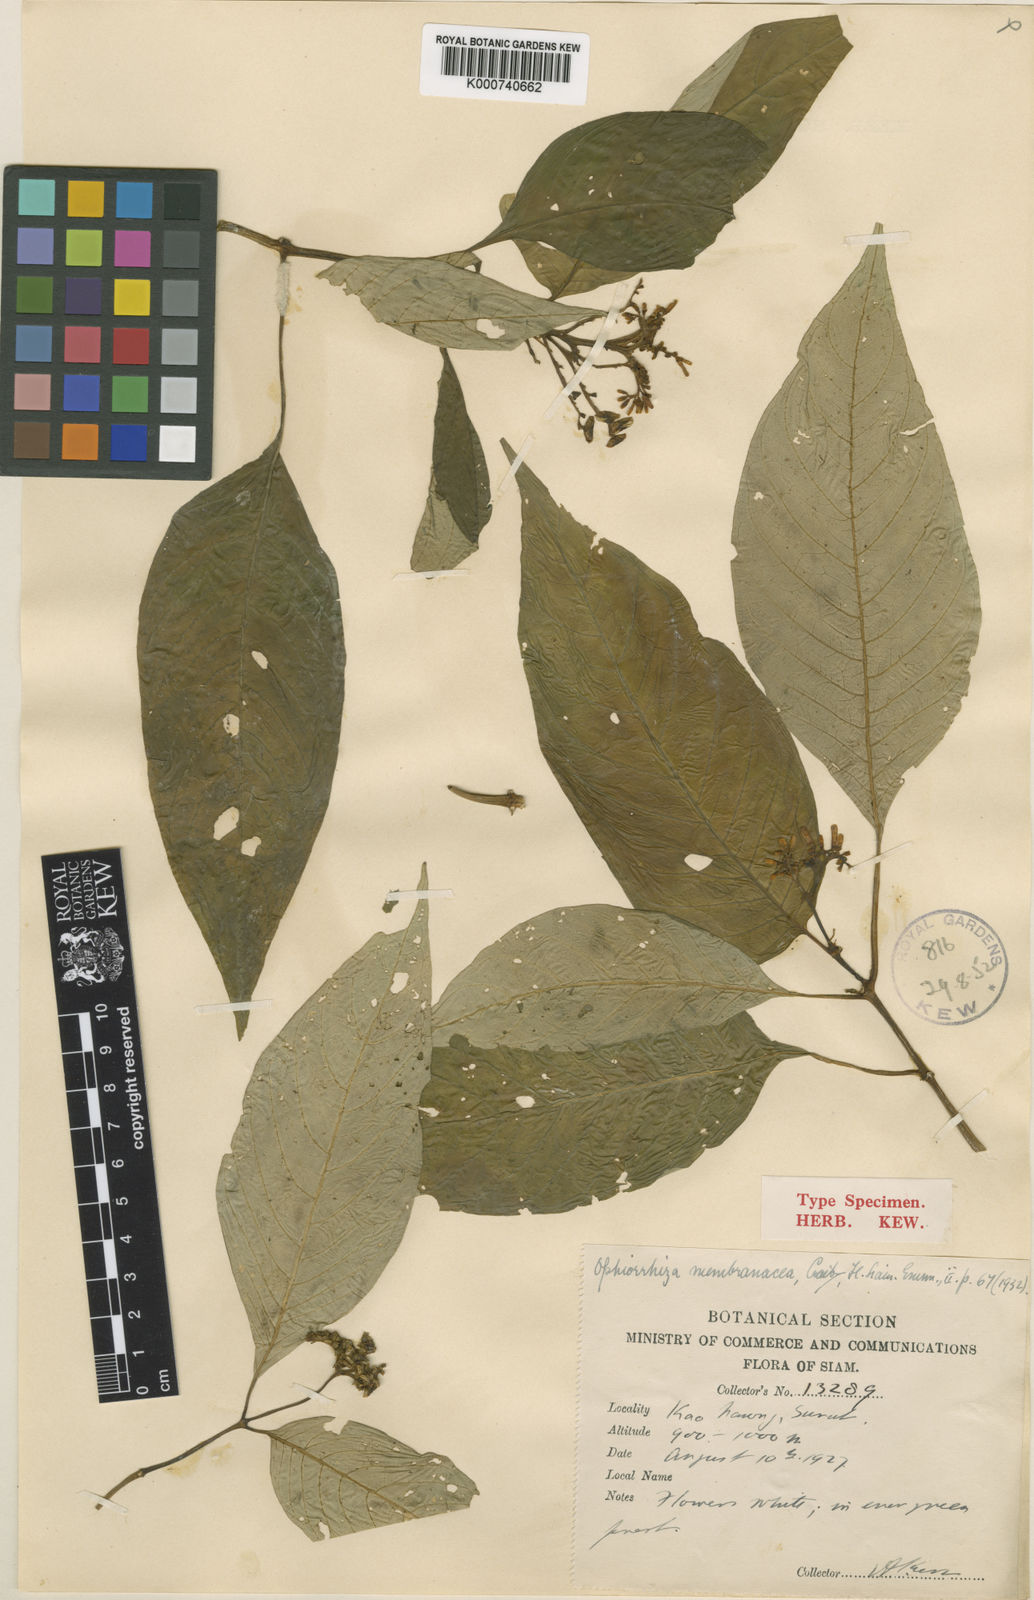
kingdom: Plantae
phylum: Tracheophyta
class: Magnoliopsida
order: Gentianales
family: Rubiaceae
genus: Ophiorrhiza
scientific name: Ophiorrhiza discolor
